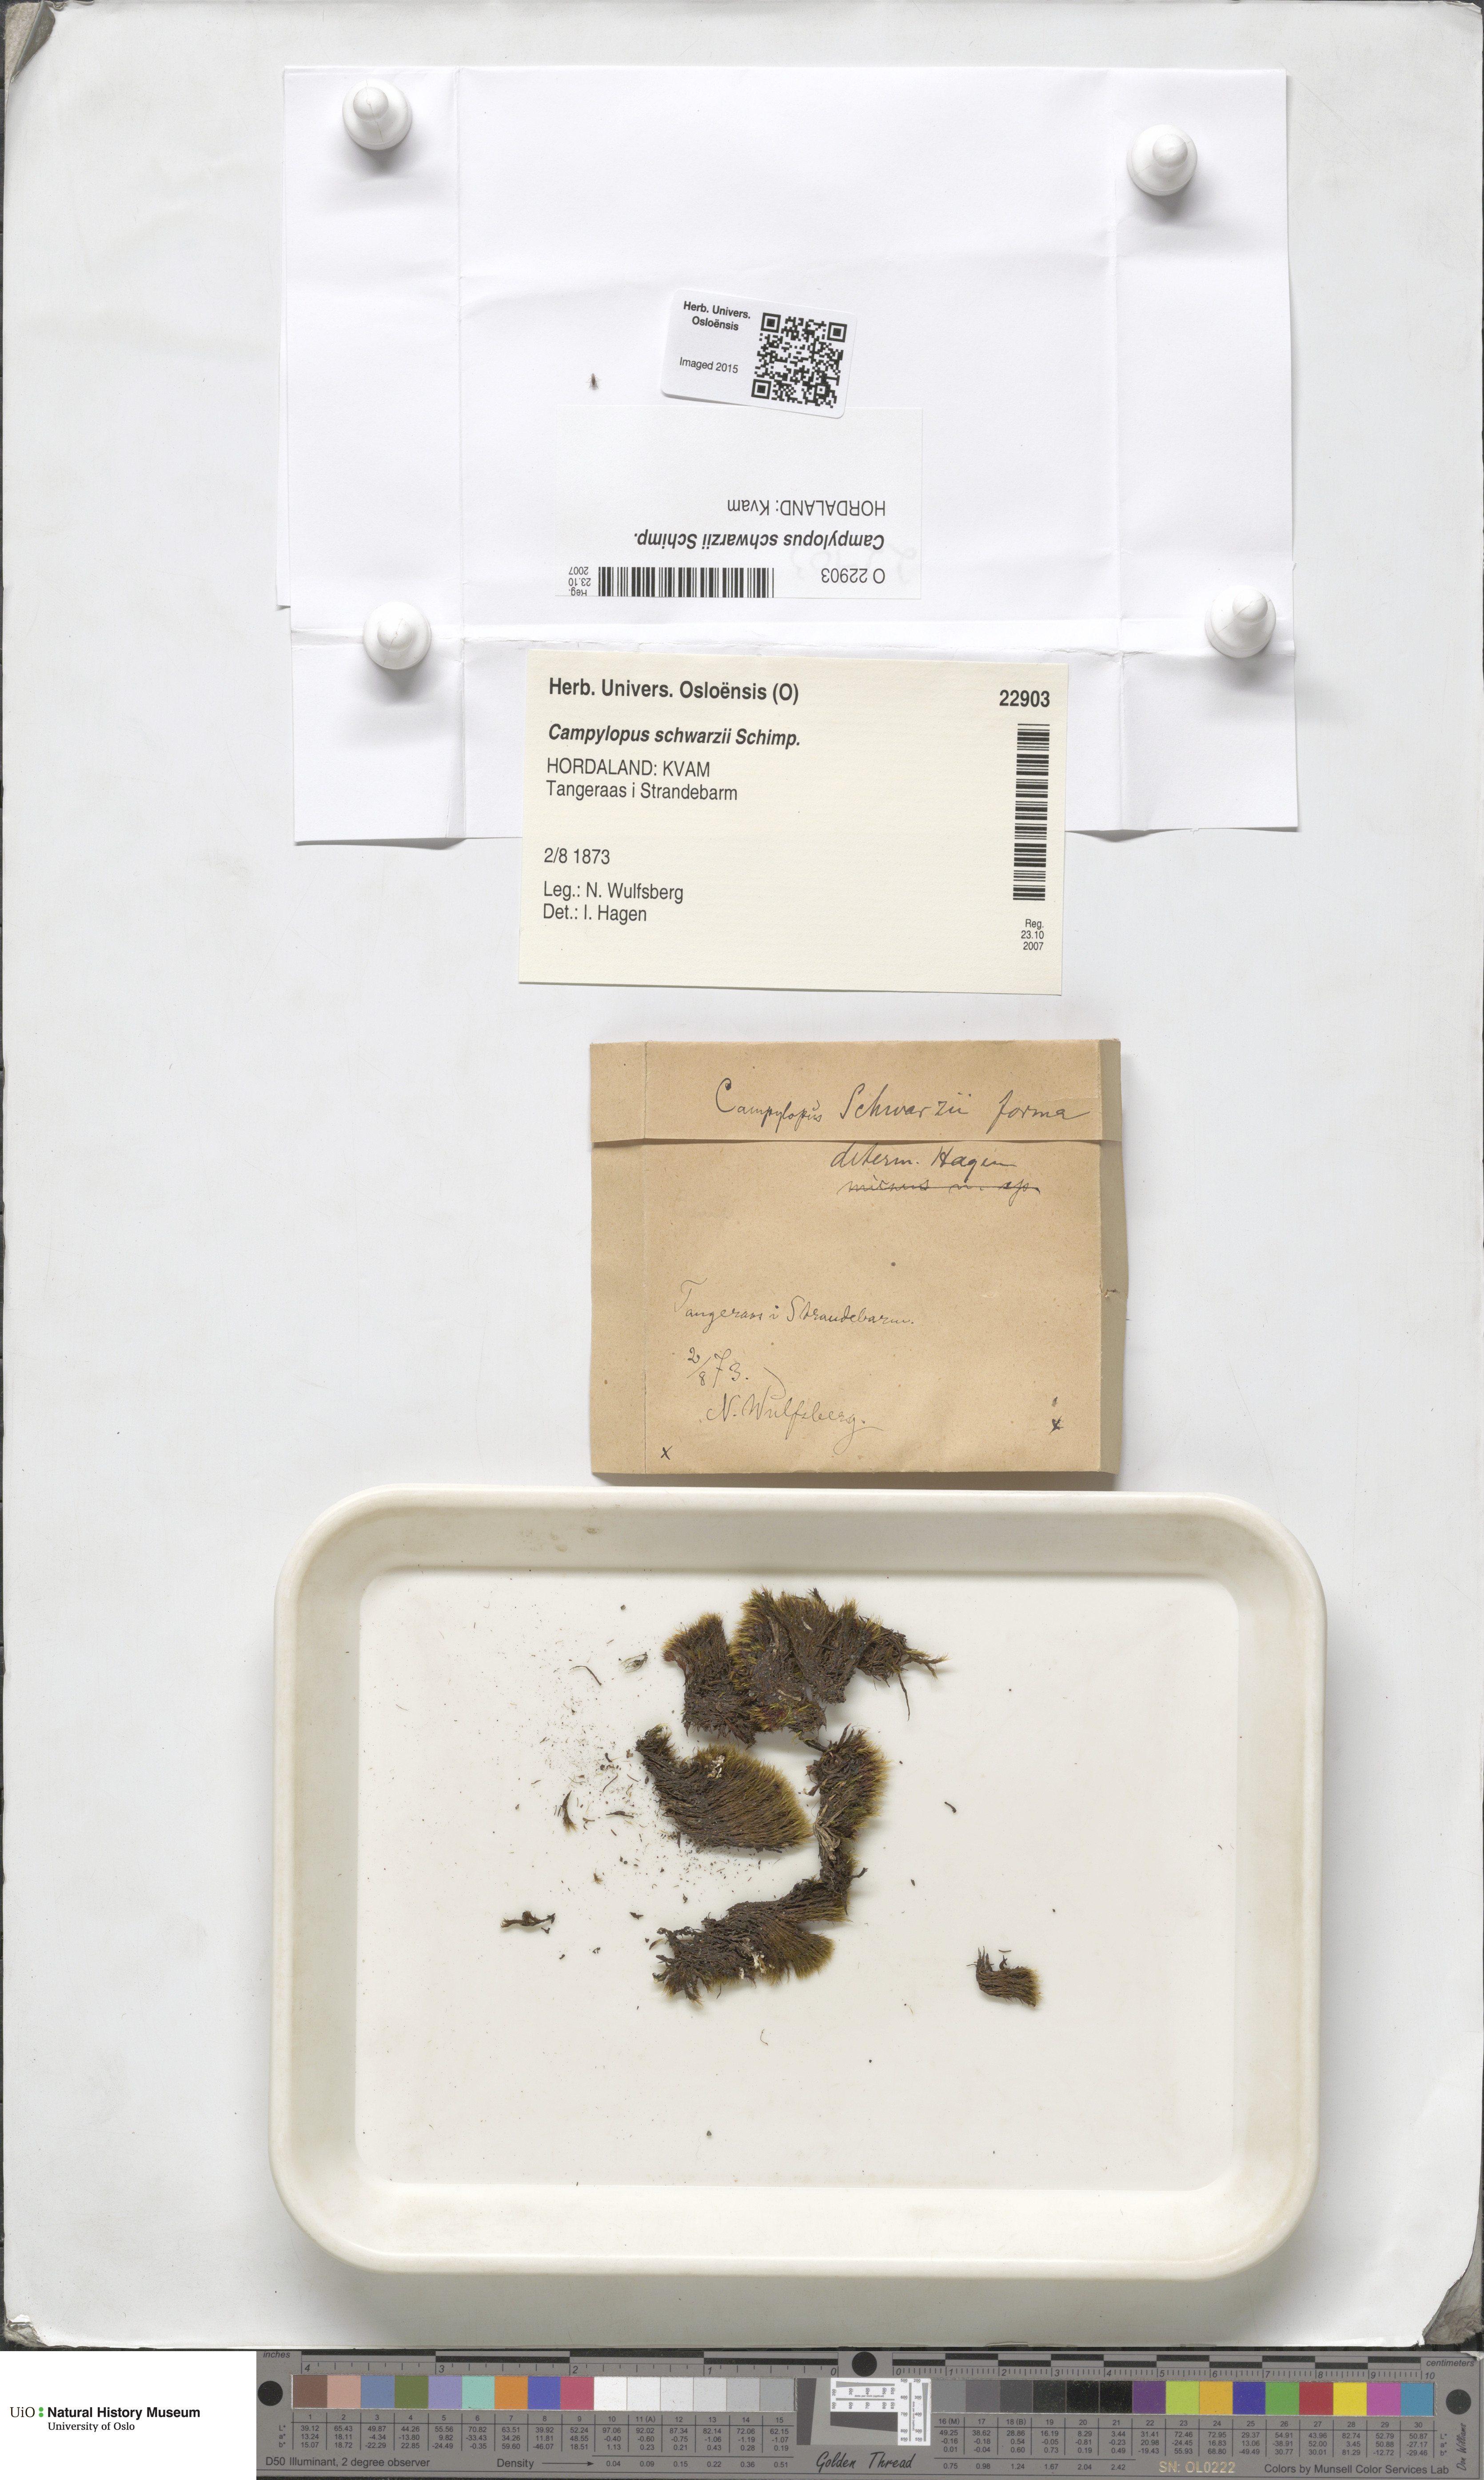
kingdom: Plantae
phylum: Bryophyta
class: Bryopsida
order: Dicranales
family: Leucobryaceae
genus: Campylopus
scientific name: Campylopus gracilis
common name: Schwarz's swan-neck moss
